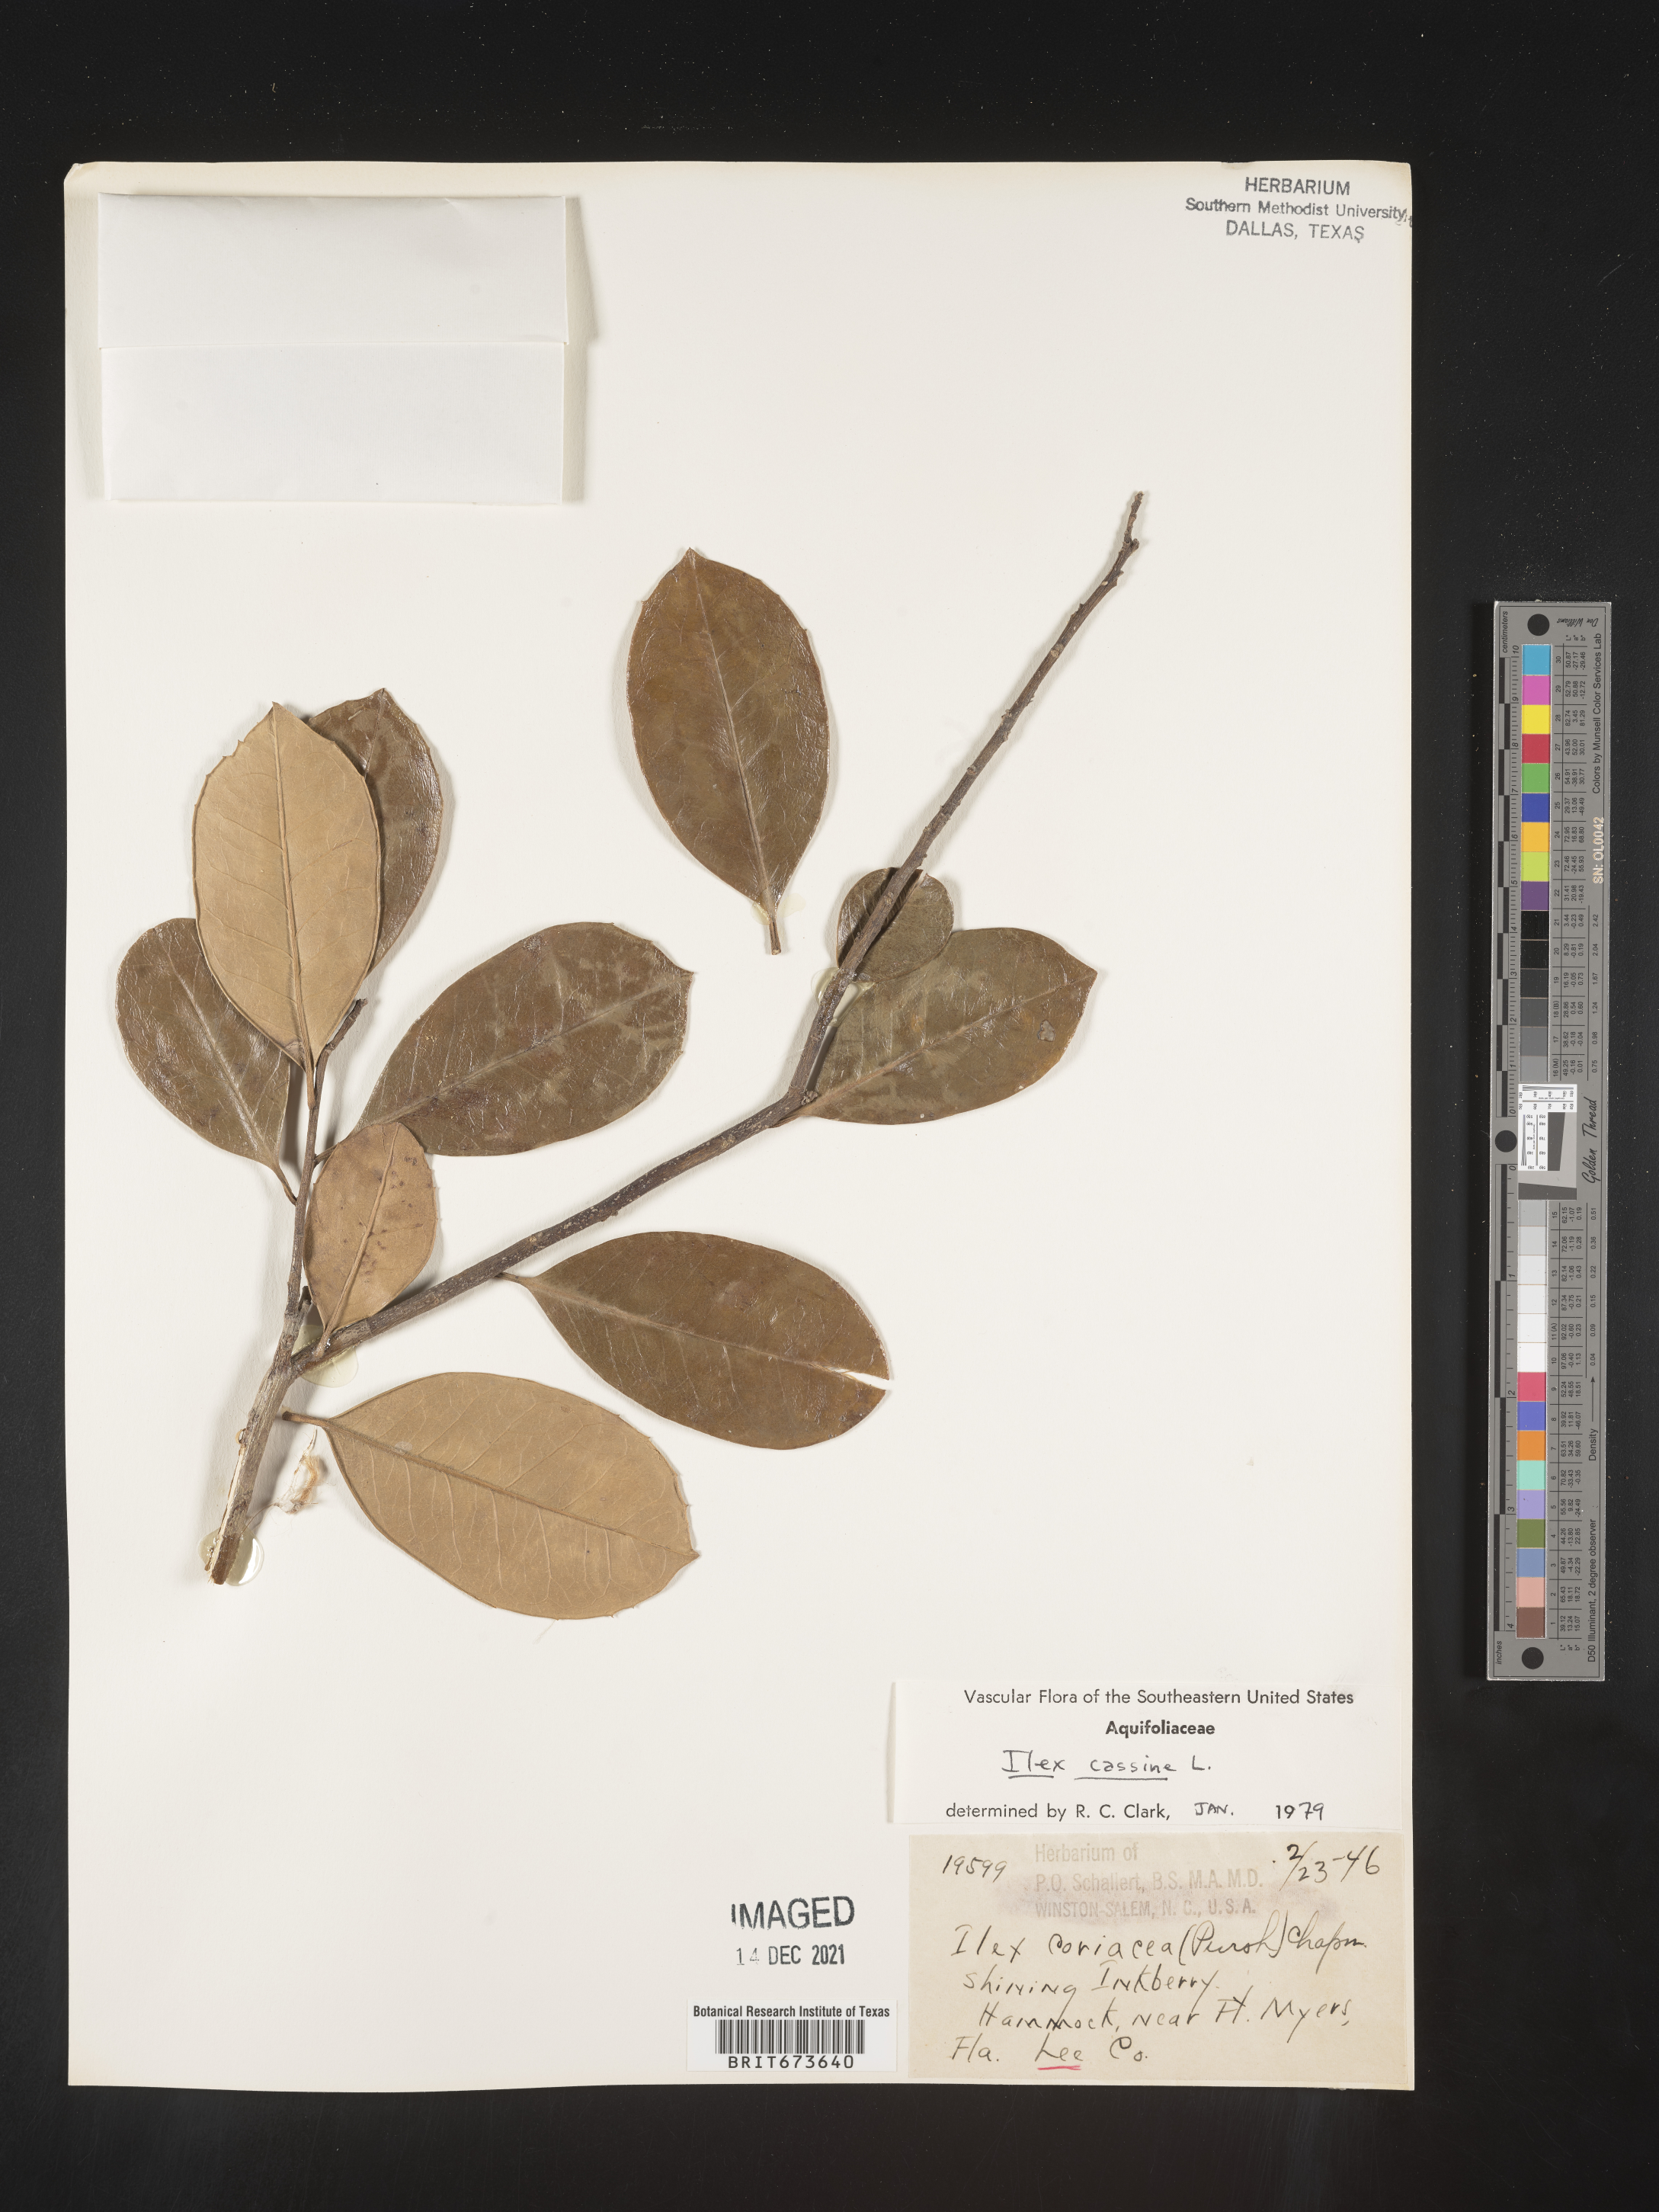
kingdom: Plantae
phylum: Tracheophyta
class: Magnoliopsida
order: Aquifoliales
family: Aquifoliaceae
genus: Ilex
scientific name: Ilex cassine
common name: Dahoon
